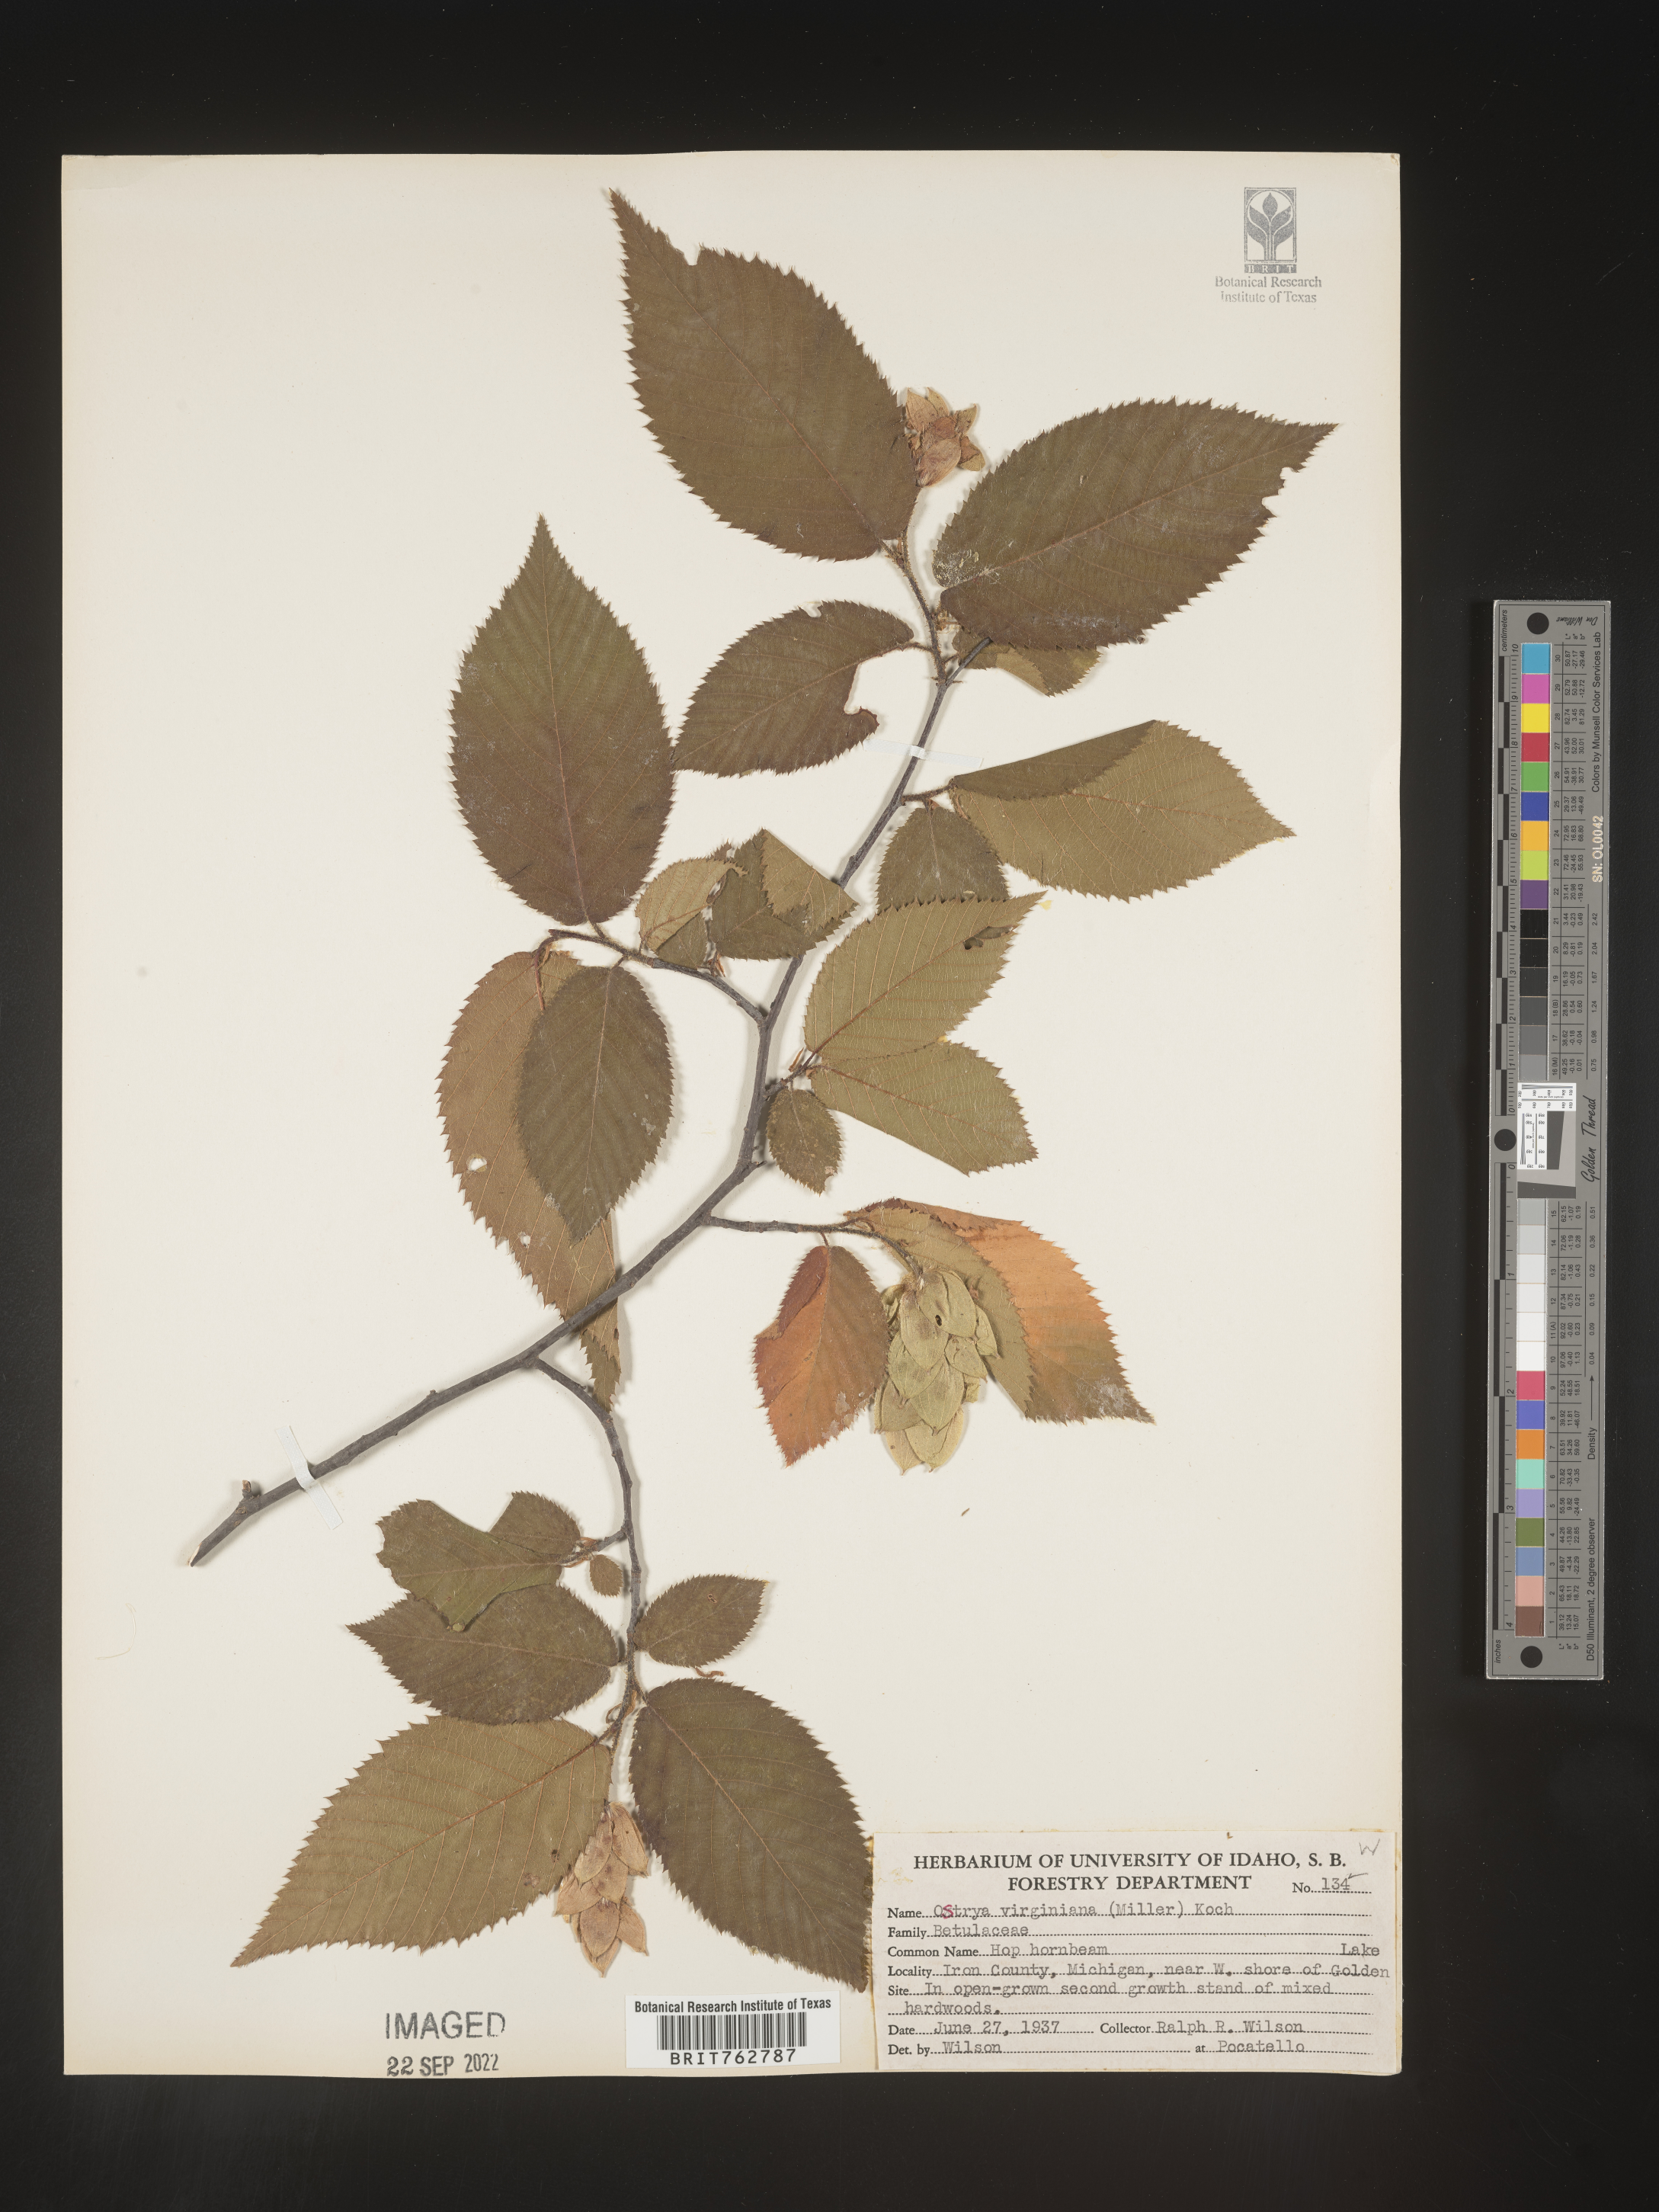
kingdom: Plantae
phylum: Tracheophyta
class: Magnoliopsida
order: Fagales
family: Betulaceae
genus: Ostrya
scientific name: Ostrya virginiana
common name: Ironwood
